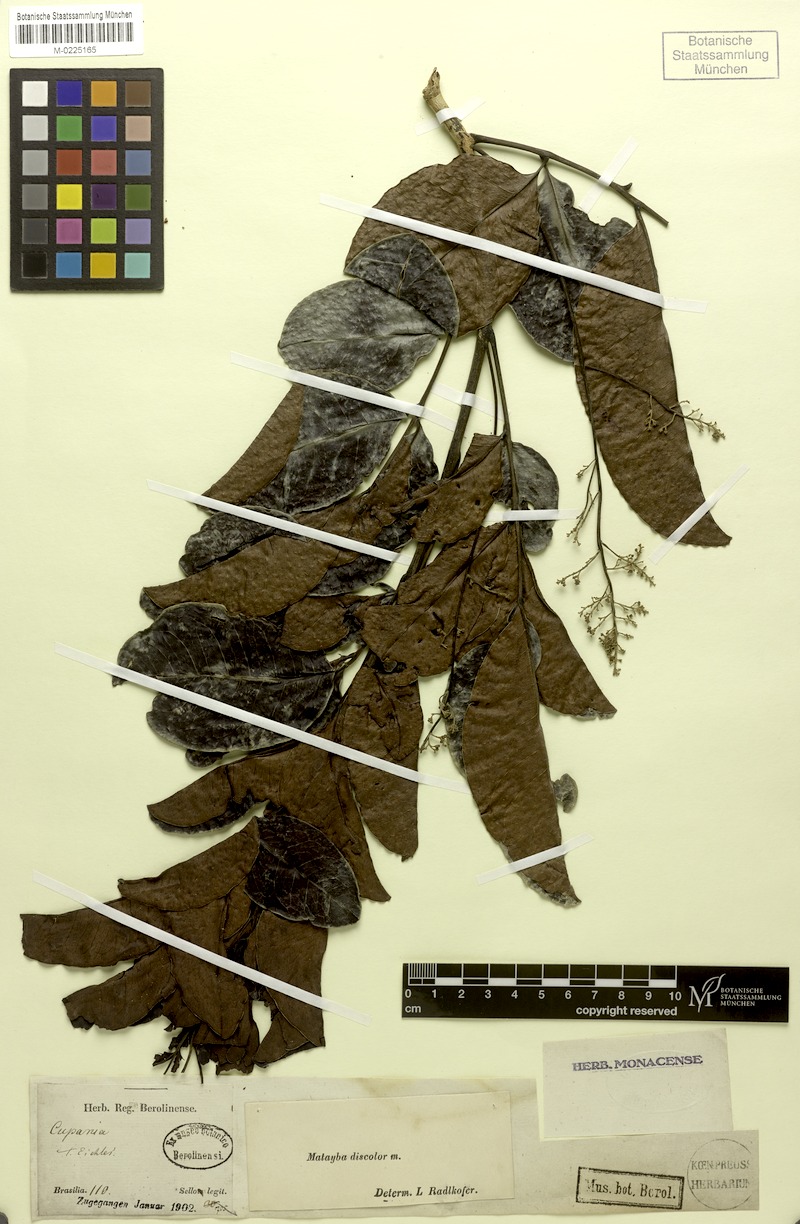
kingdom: Plantae
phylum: Tracheophyta
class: Magnoliopsida
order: Sapindales
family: Sapindaceae
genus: Matayba
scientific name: Matayba discolor
